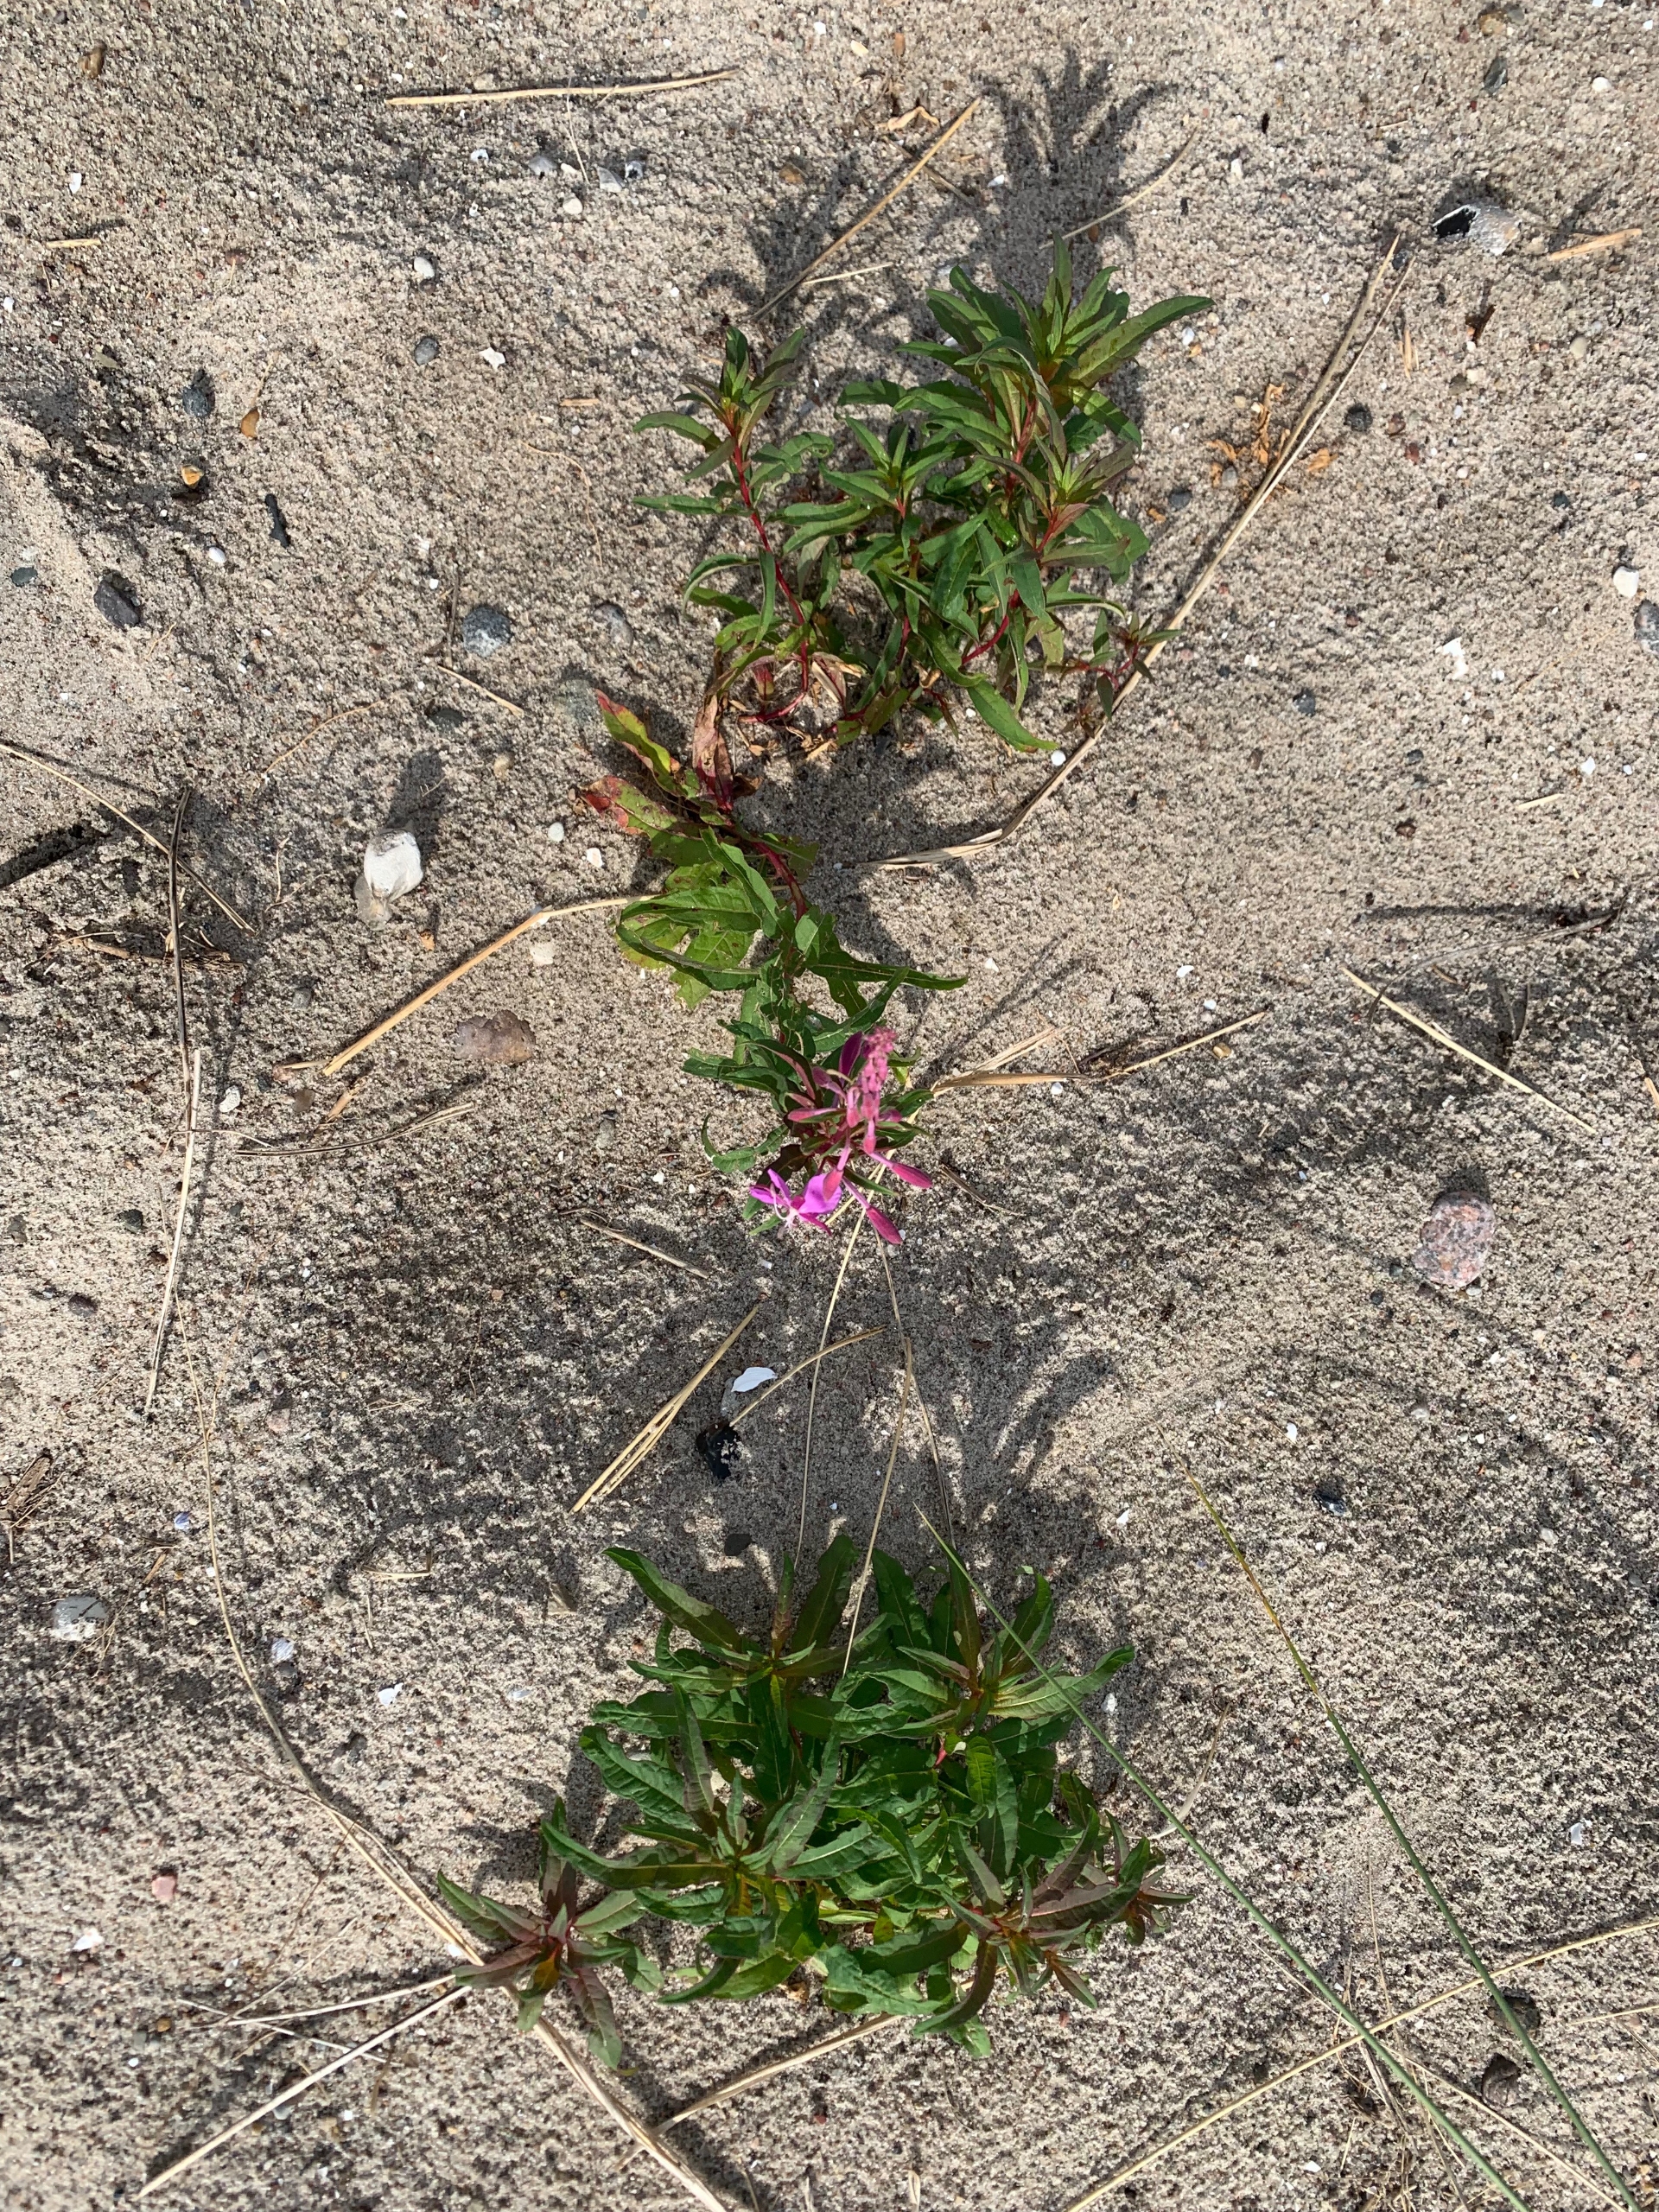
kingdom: Plantae
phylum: Tracheophyta
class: Magnoliopsida
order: Myrtales
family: Onagraceae
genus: Chamaenerion
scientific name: Chamaenerion angustifolium
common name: Gederams
